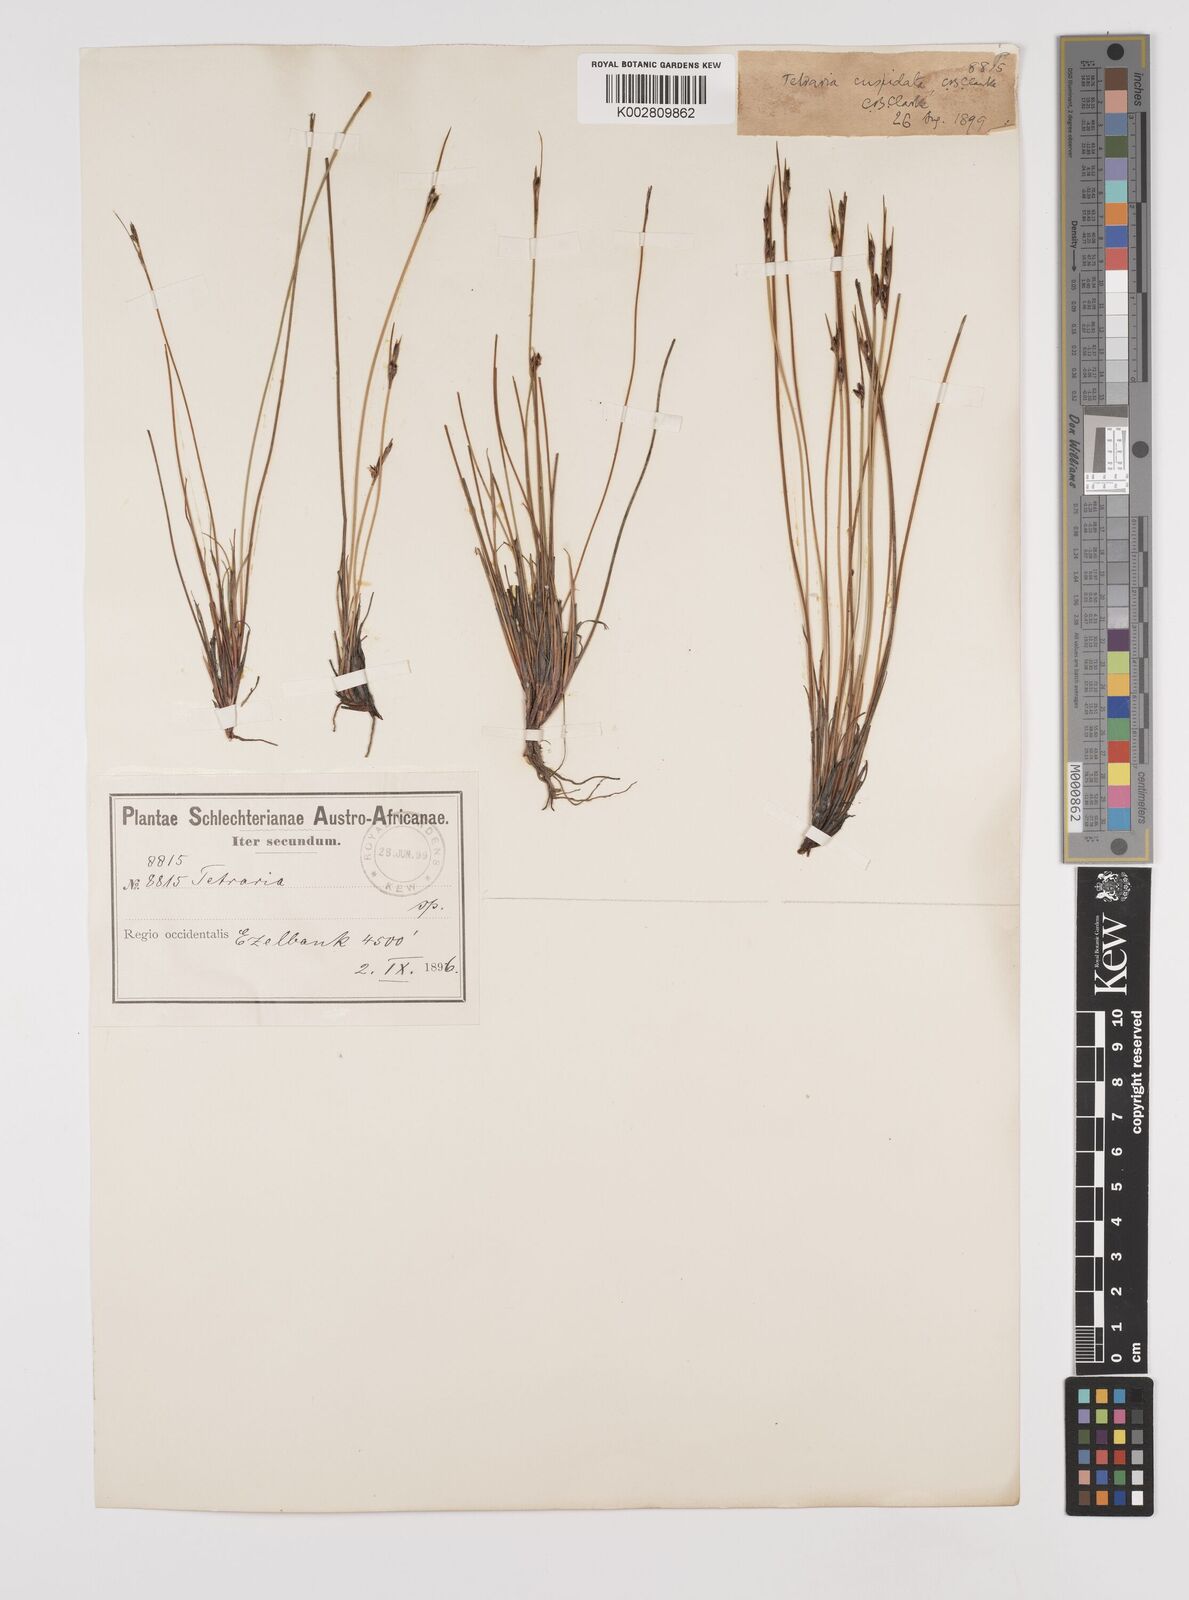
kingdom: Plantae
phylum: Tracheophyta
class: Liliopsida
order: Poales
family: Cyperaceae
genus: Schoenus
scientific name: Schoenus
